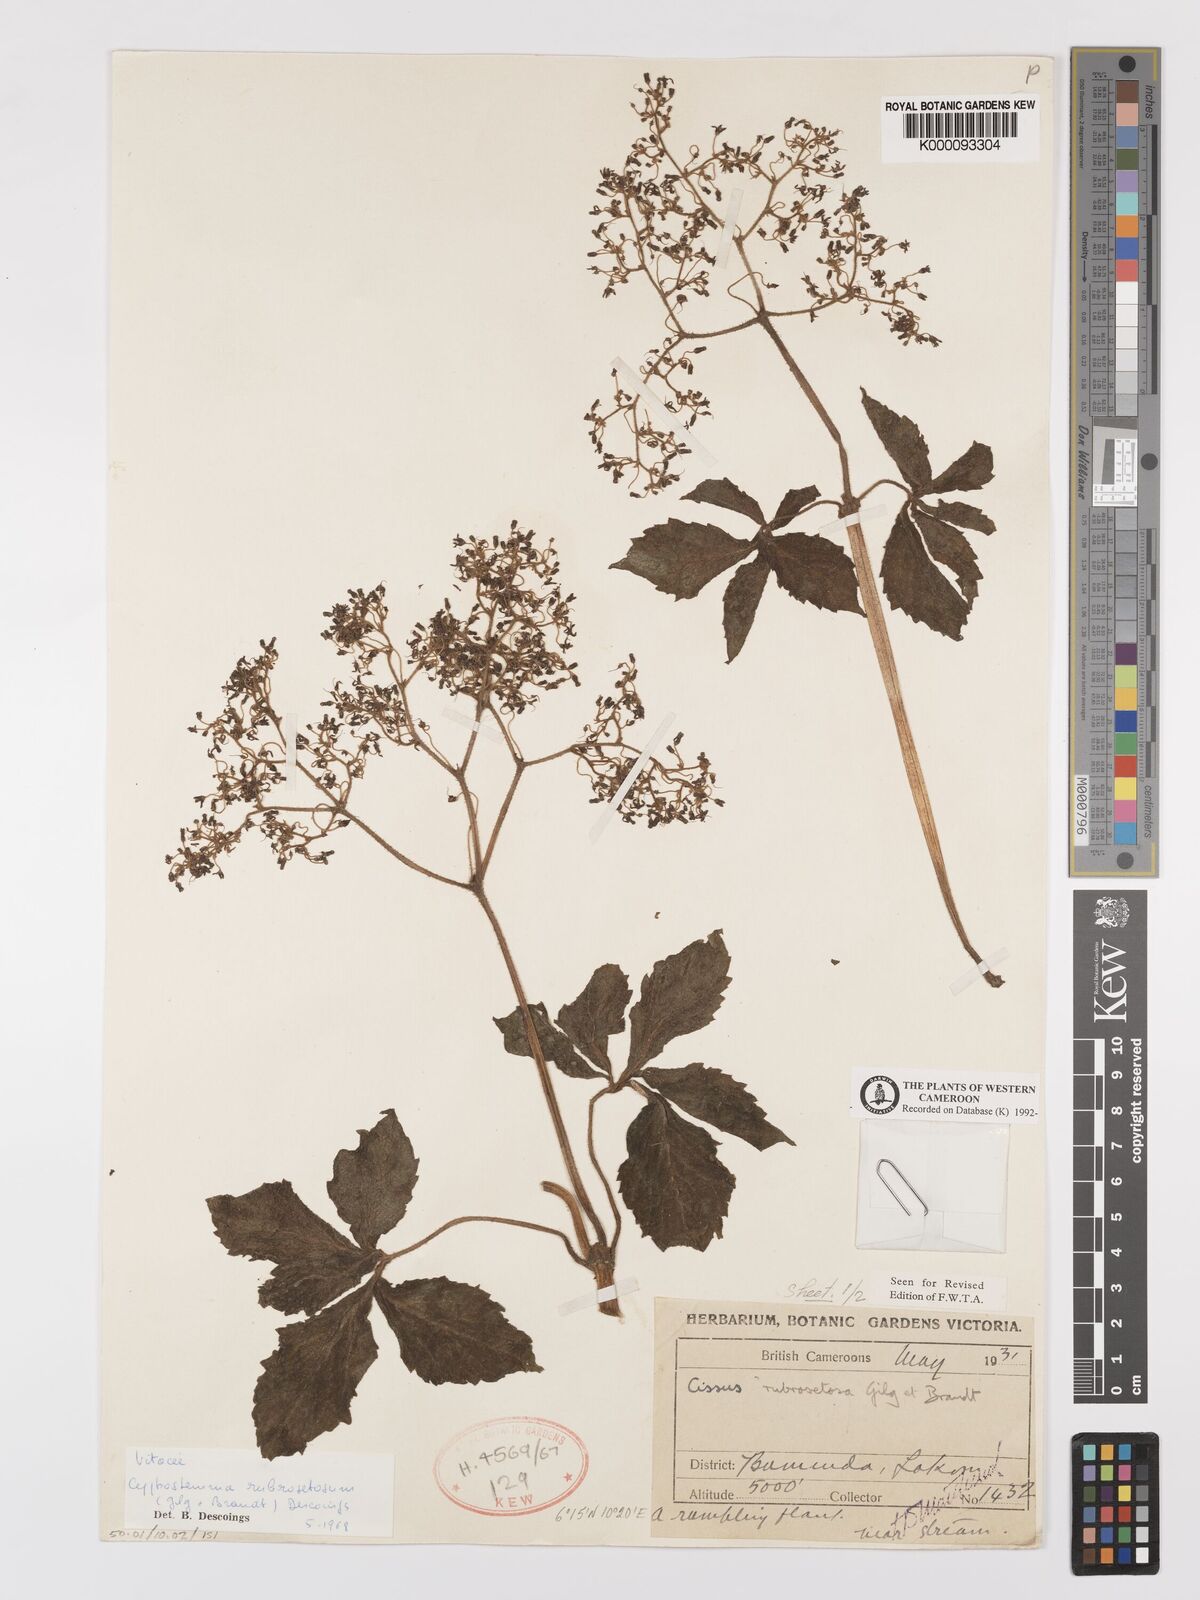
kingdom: Plantae
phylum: Tracheophyta
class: Magnoliopsida
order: Vitales
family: Vitaceae
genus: Cyphostemma
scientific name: Cyphostemma rubrosetosum
